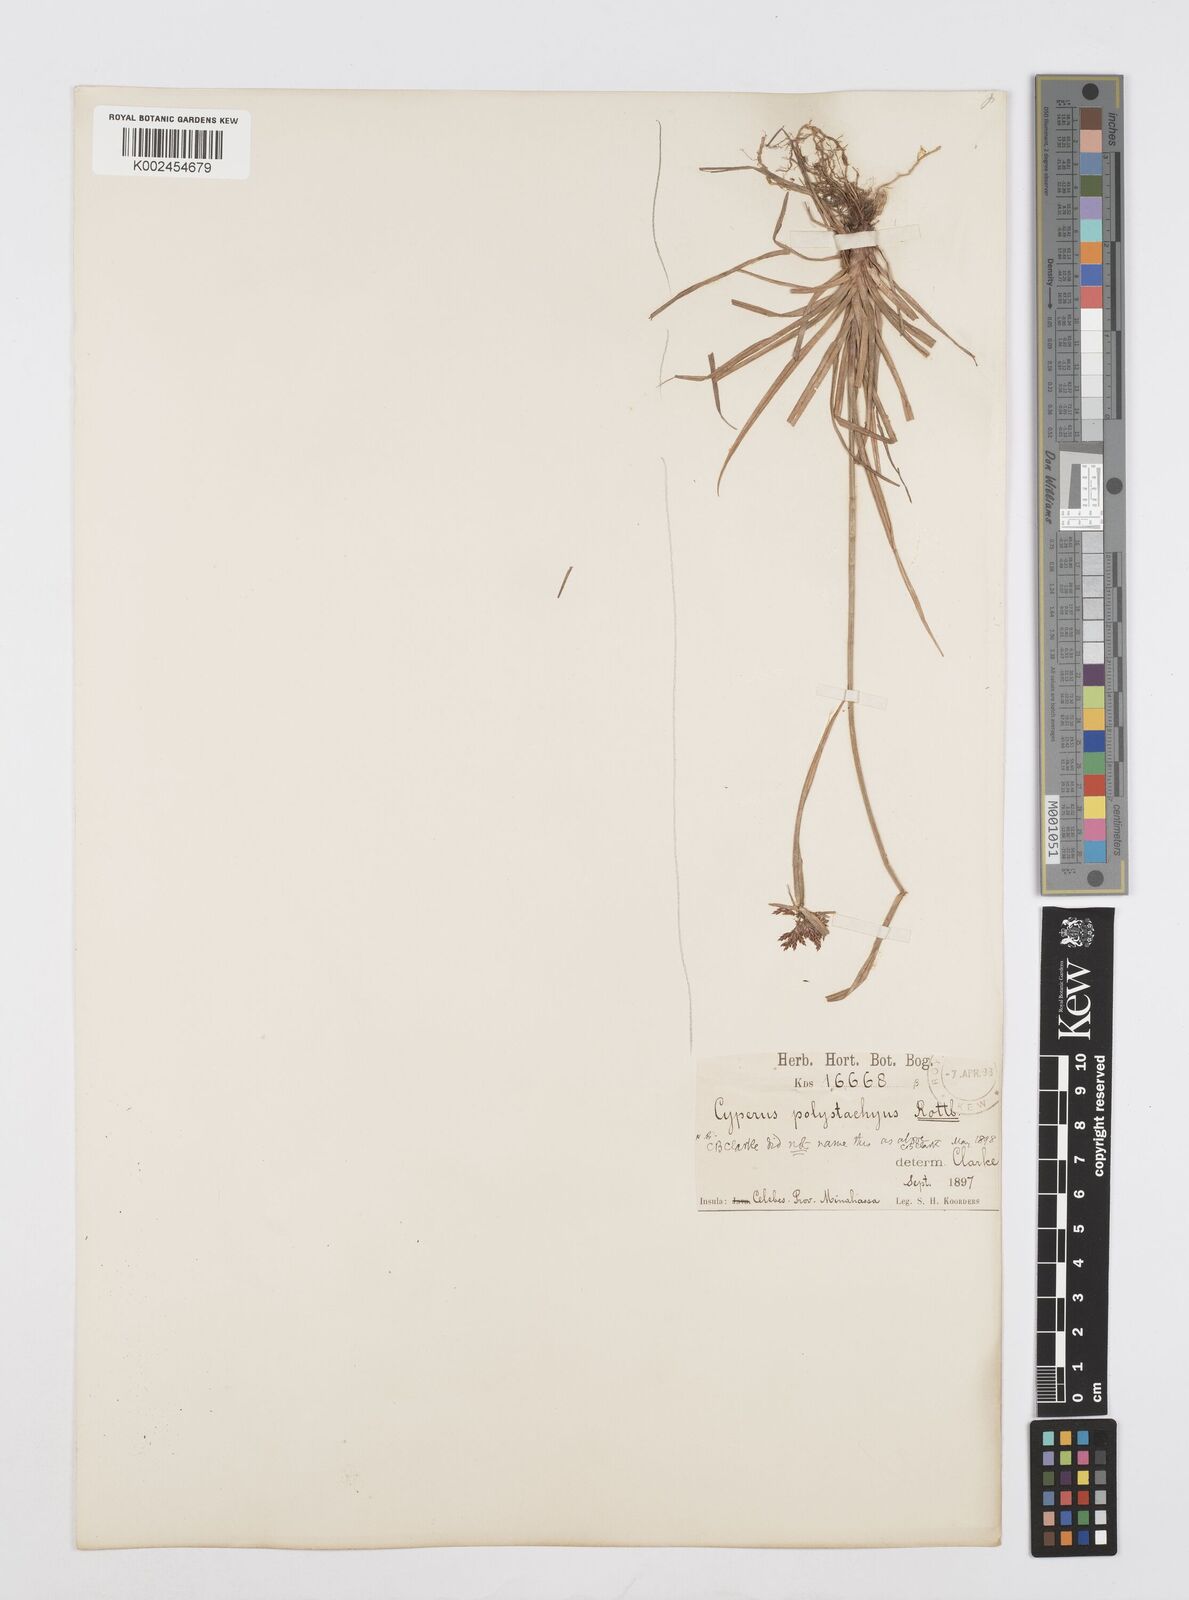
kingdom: Plantae
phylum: Tracheophyta
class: Liliopsida
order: Poales
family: Cyperaceae
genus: Cyperus
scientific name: Cyperus polystachyos
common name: Bunchy flat sedge
